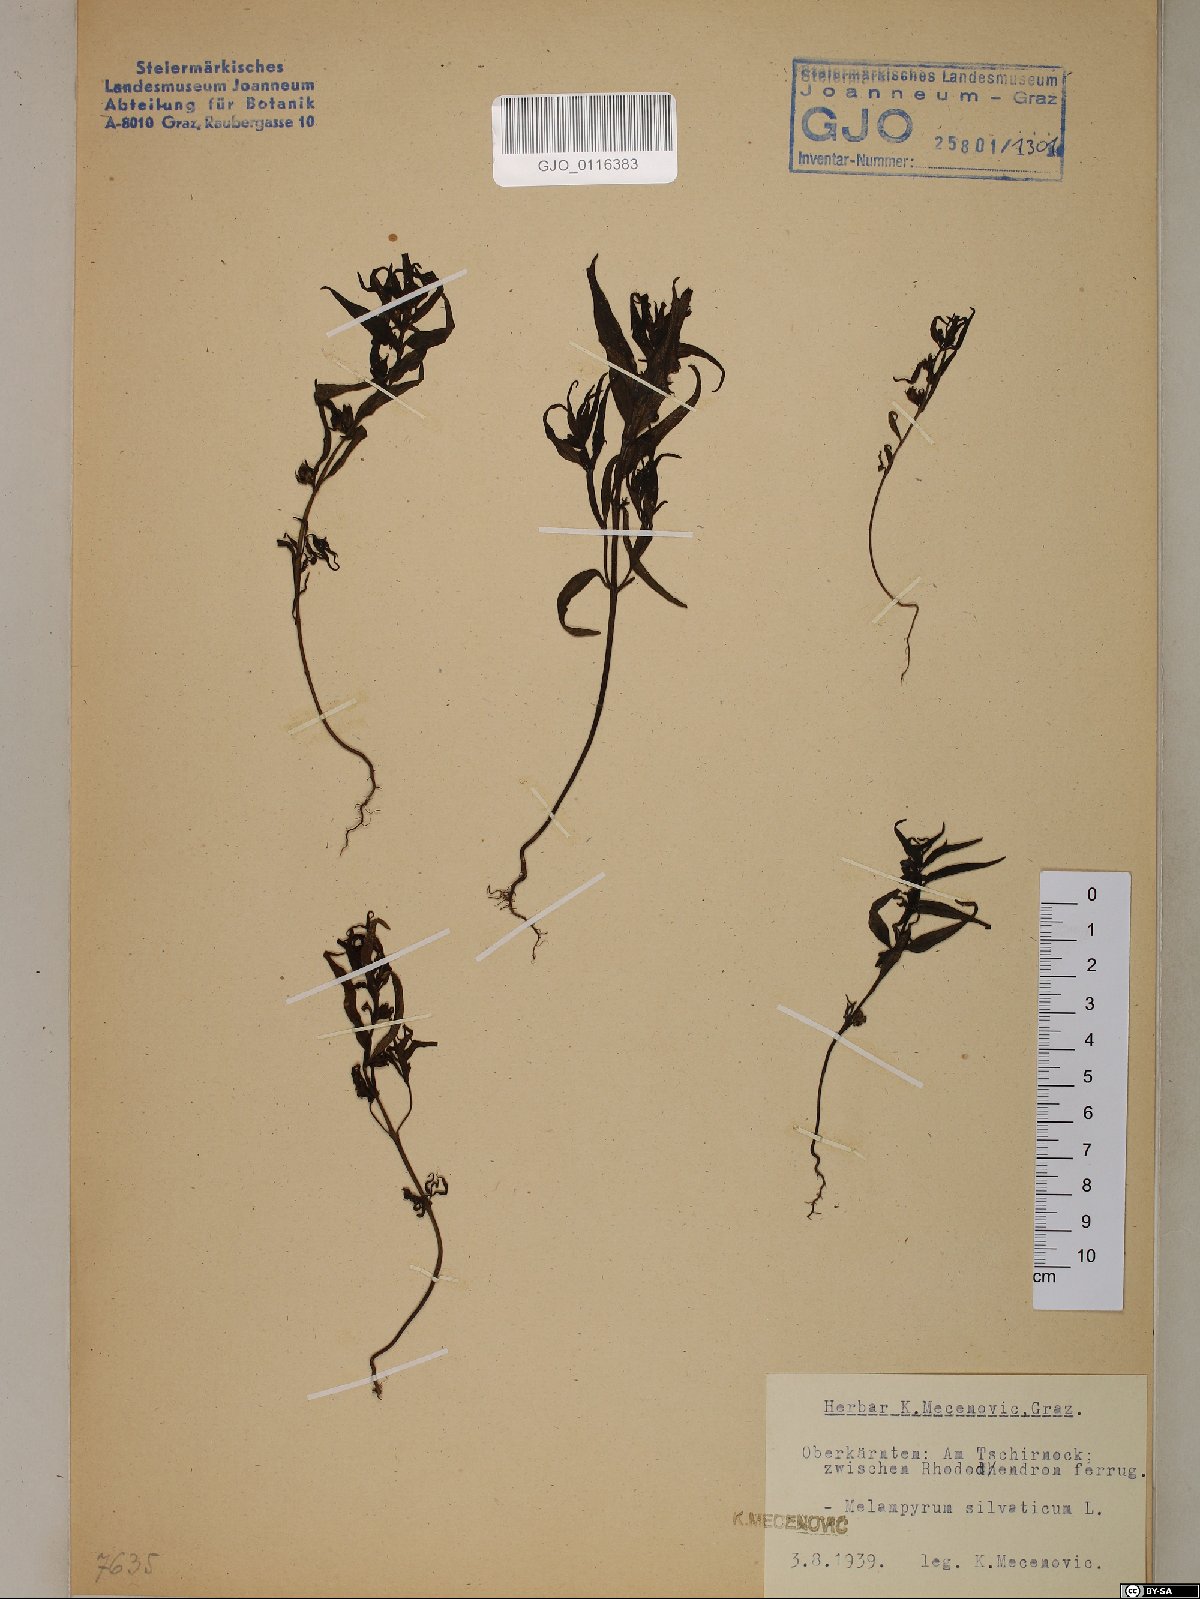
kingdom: Plantae
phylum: Tracheophyta
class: Magnoliopsida
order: Lamiales
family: Orobanchaceae
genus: Melampyrum
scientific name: Melampyrum sylvaticum
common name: Small cow-wheat
